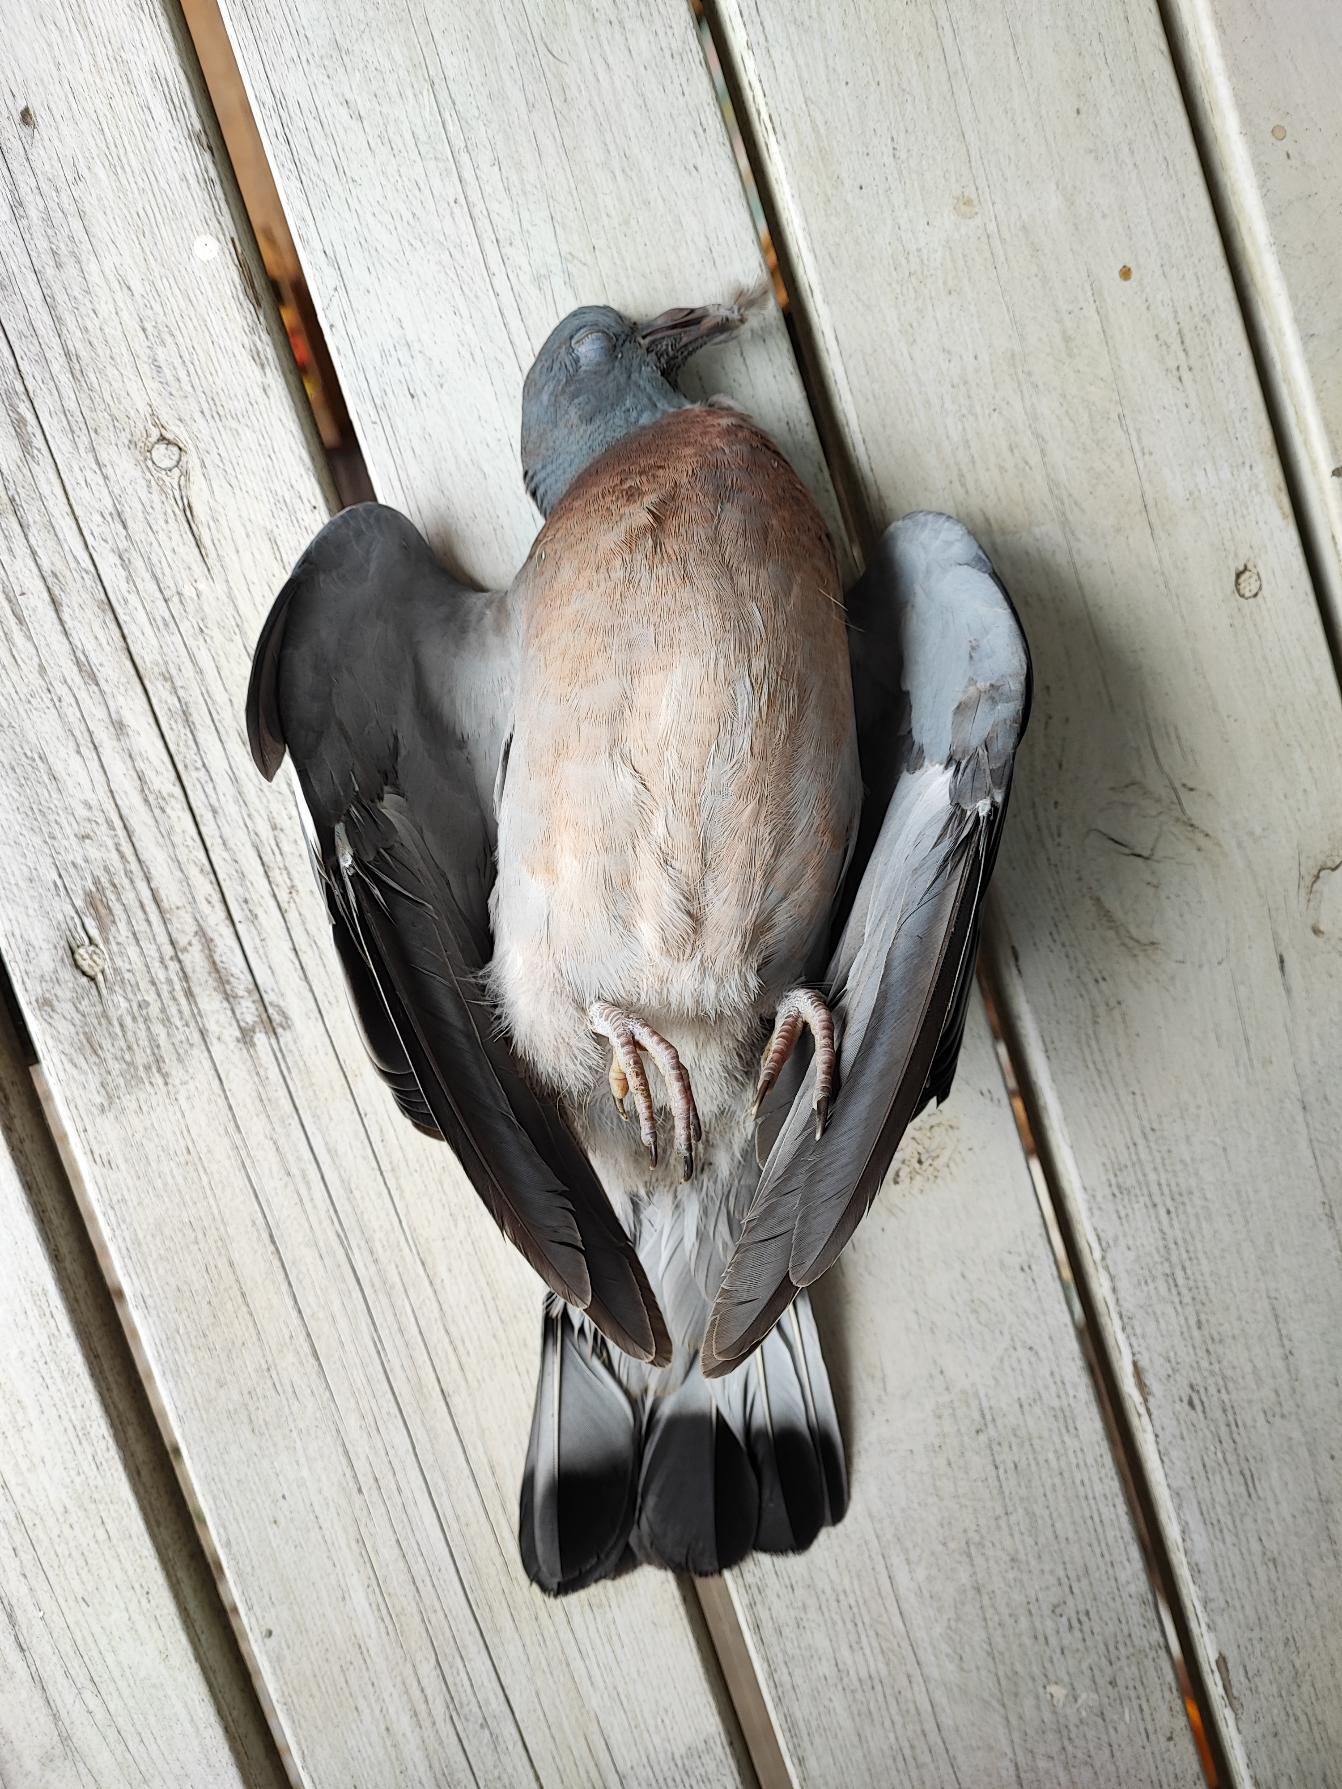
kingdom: Animalia
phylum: Chordata
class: Aves
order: Columbiformes
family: Columbidae
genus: Columba
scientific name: Columba palumbus
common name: Ringdue
